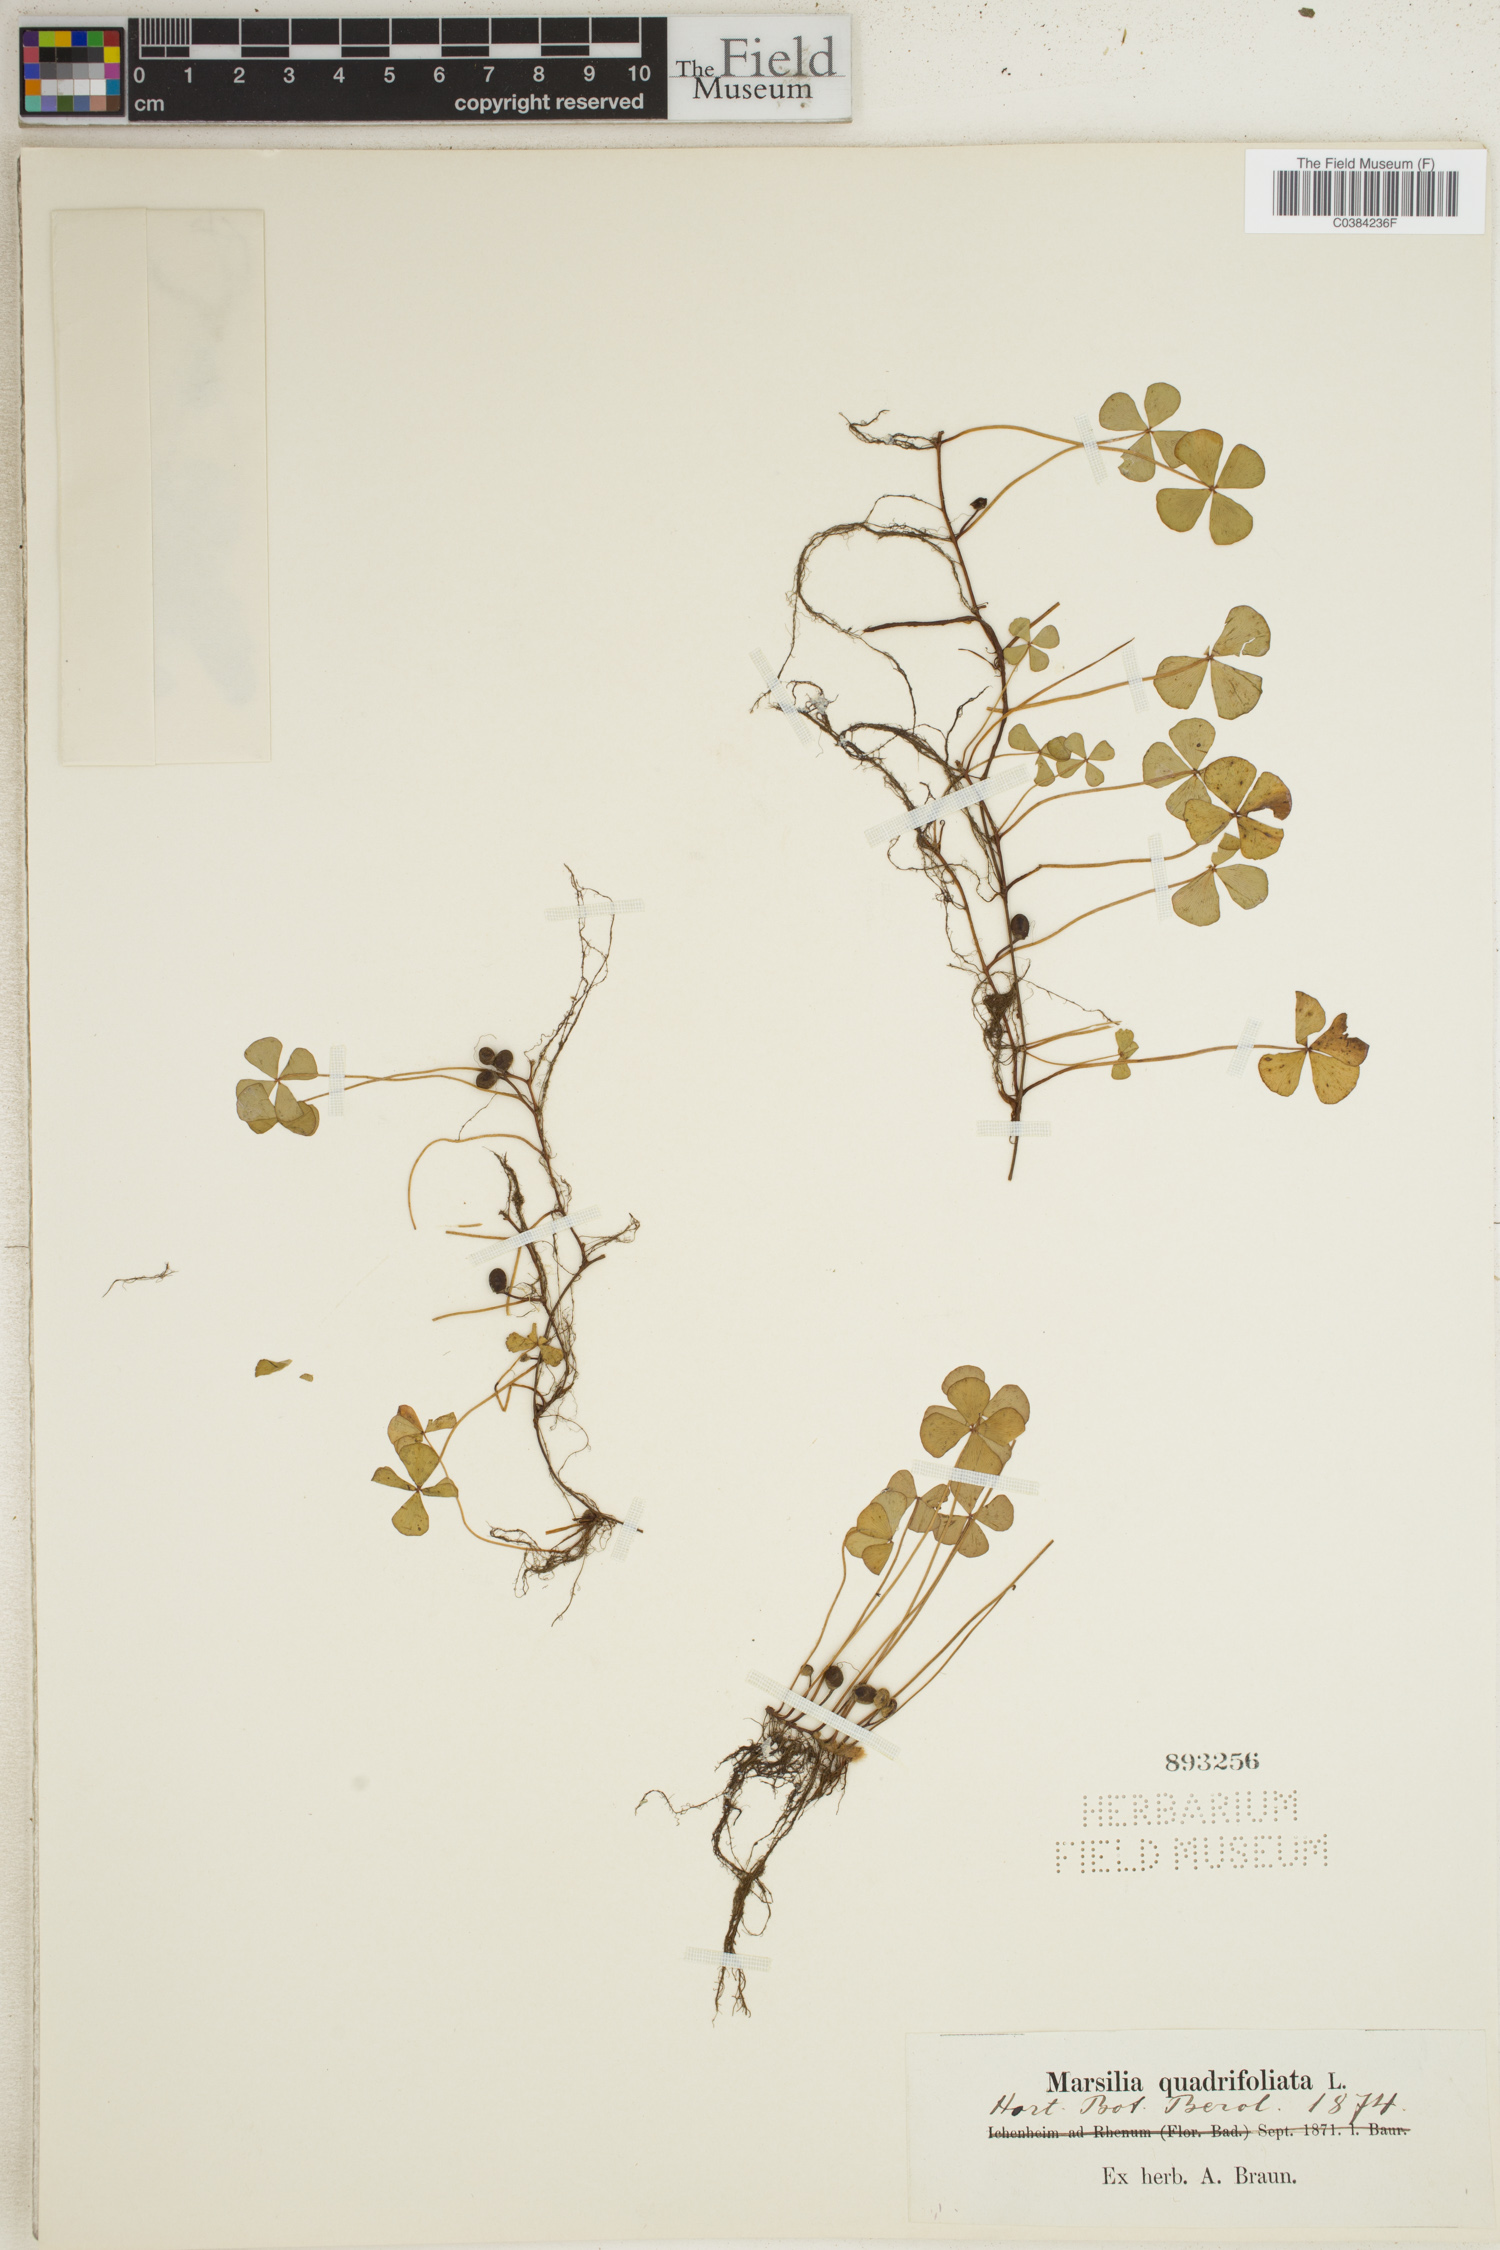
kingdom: Plantae
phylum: Tracheophyta
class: Polypodiopsida
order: Salviniales
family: Marsileaceae
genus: Marsilea
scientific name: Marsilea quadrifolia
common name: Water shamrock
